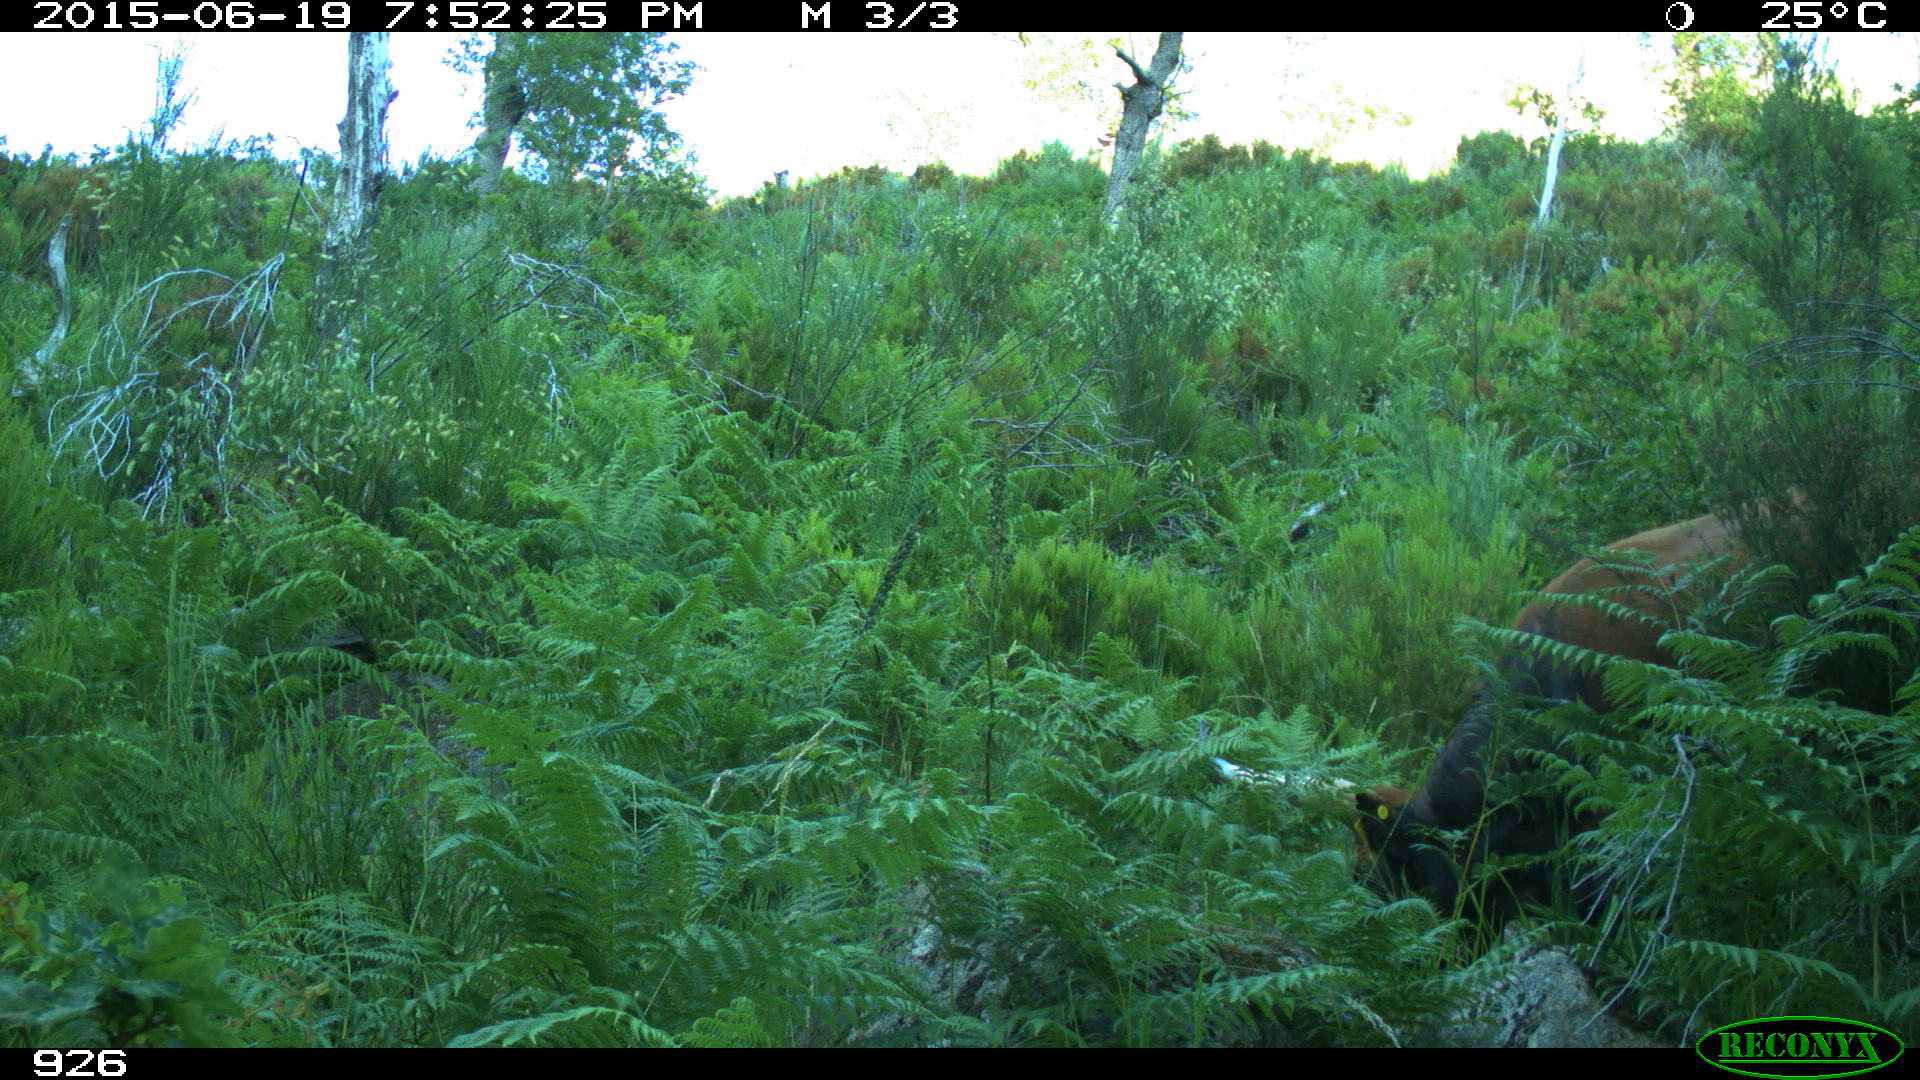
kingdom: Animalia
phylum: Chordata
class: Mammalia
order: Artiodactyla
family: Bovidae
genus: Bos
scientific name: Bos taurus
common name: Domesticated cattle
